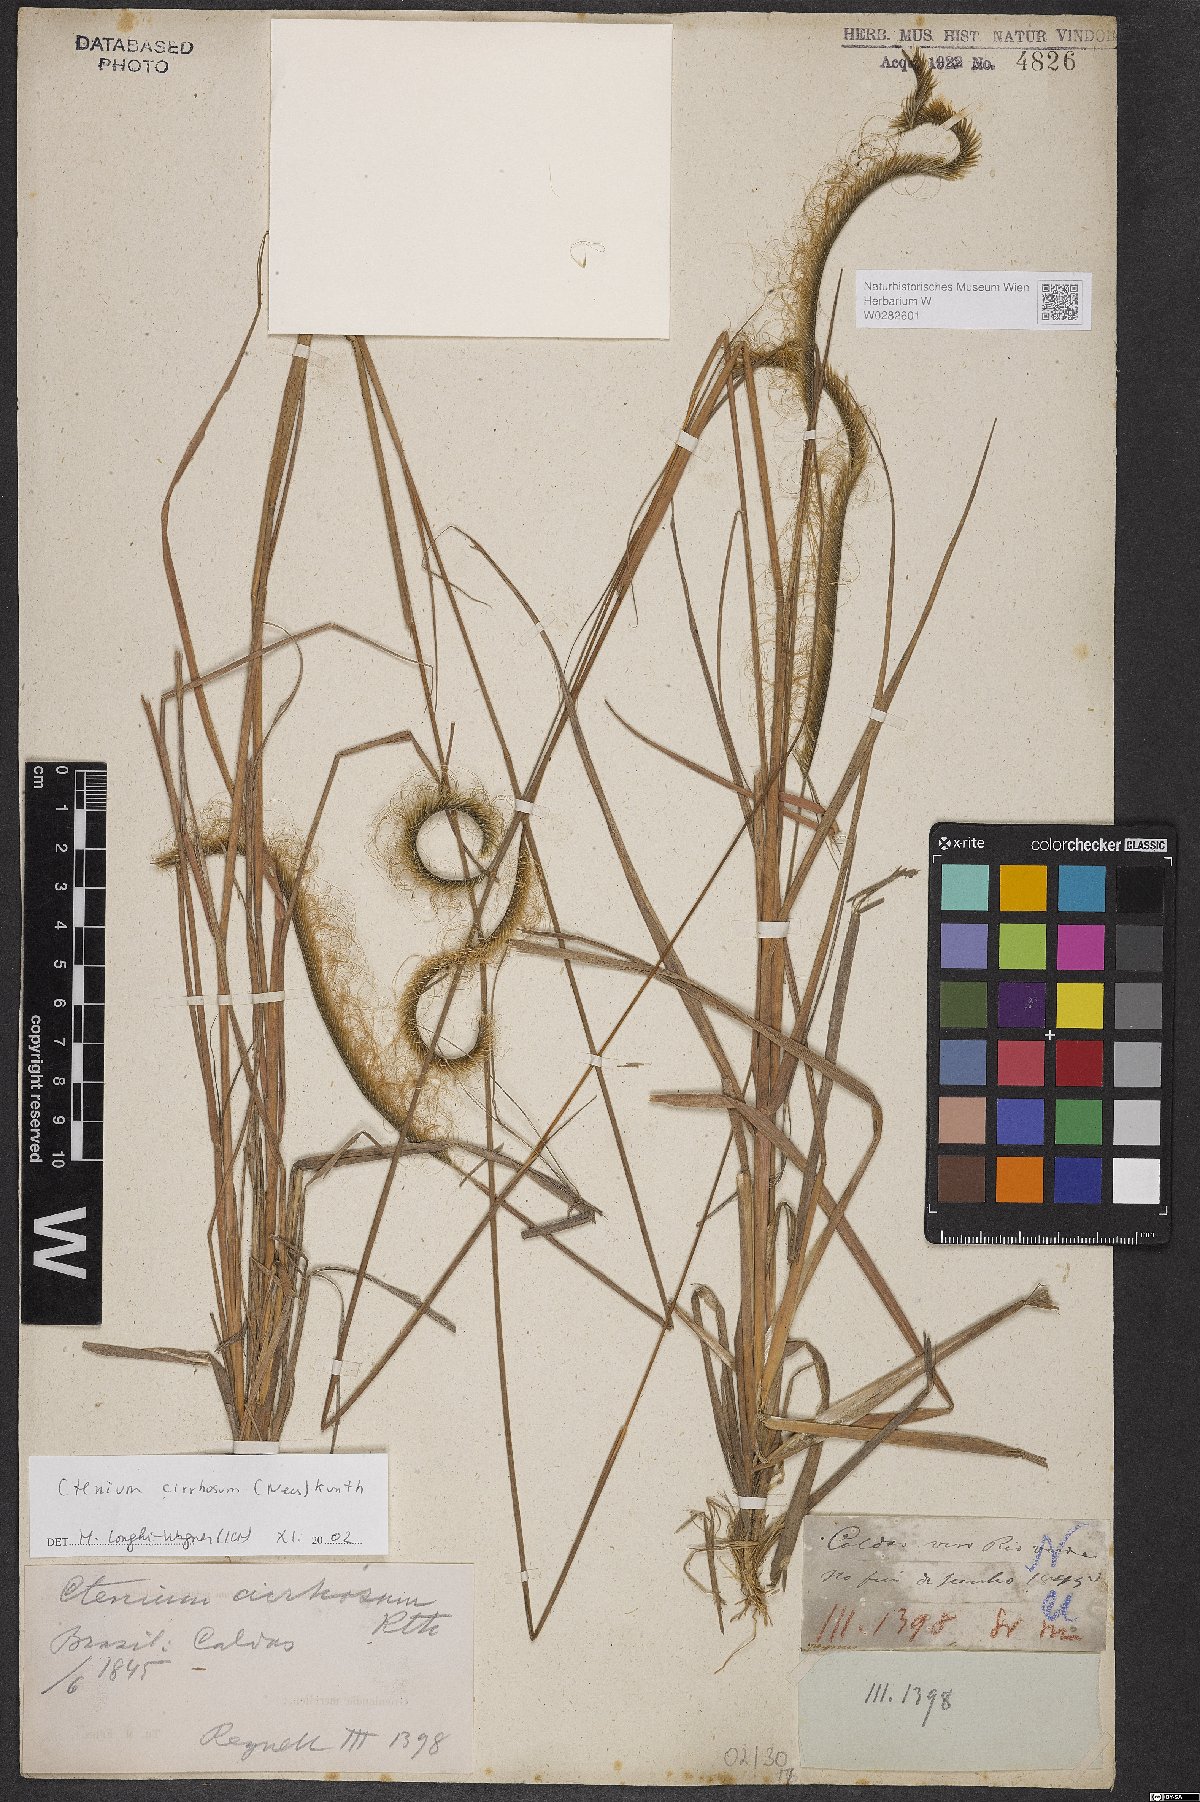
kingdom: Plantae
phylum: Tracheophyta
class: Liliopsida
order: Poales
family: Poaceae
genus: Ctenium
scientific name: Ctenium cirrhosum
